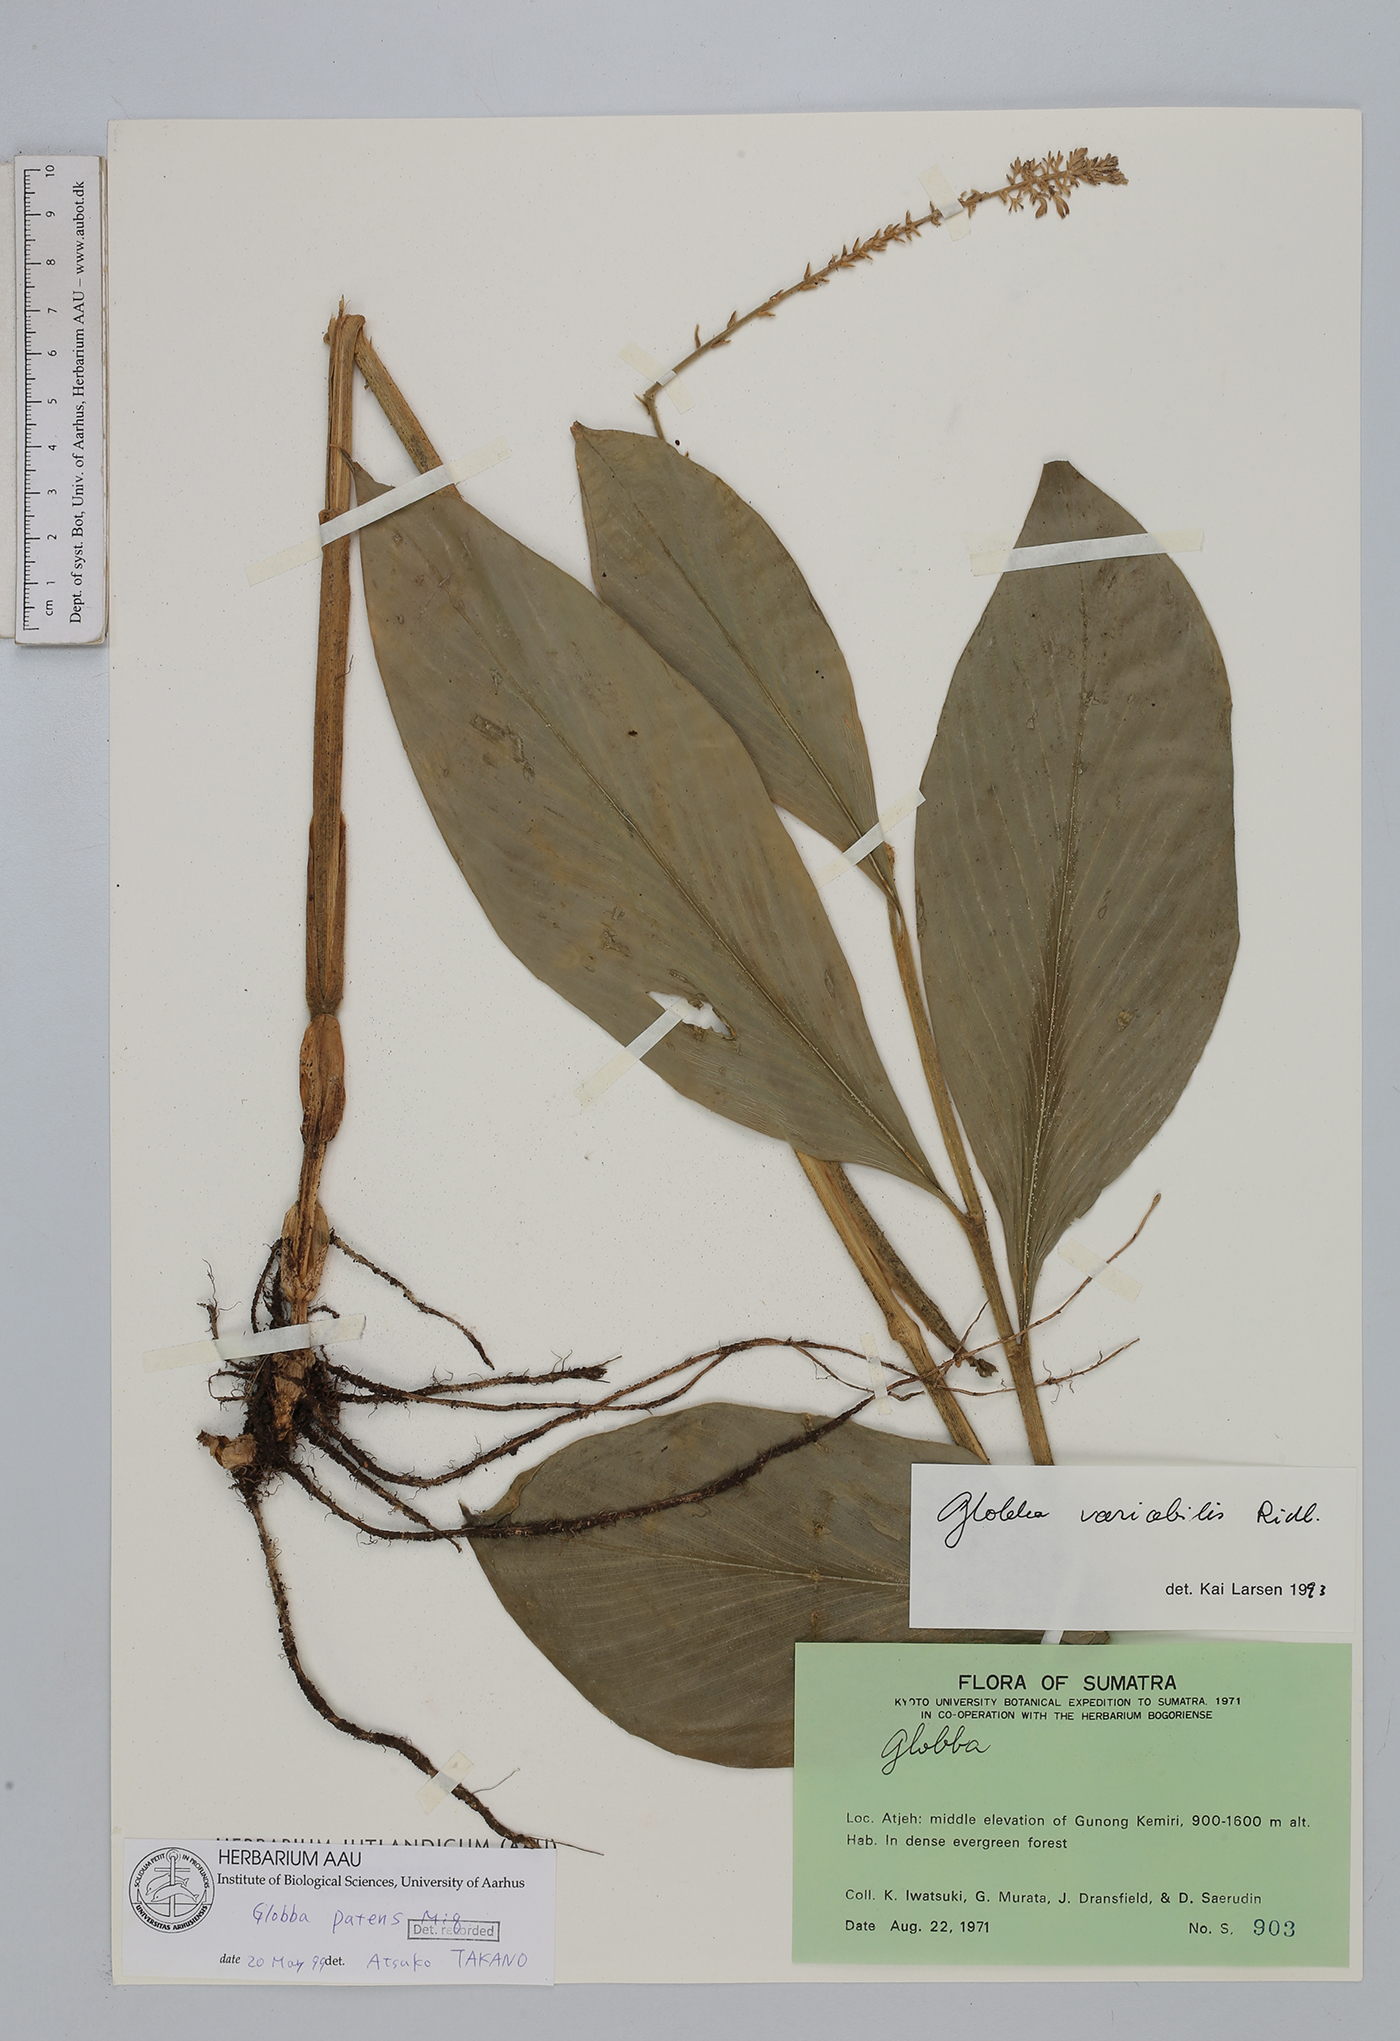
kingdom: Plantae
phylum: Tracheophyta
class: Liliopsida
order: Zingiberales
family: Zingiberaceae
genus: Globba
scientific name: Globba patens
